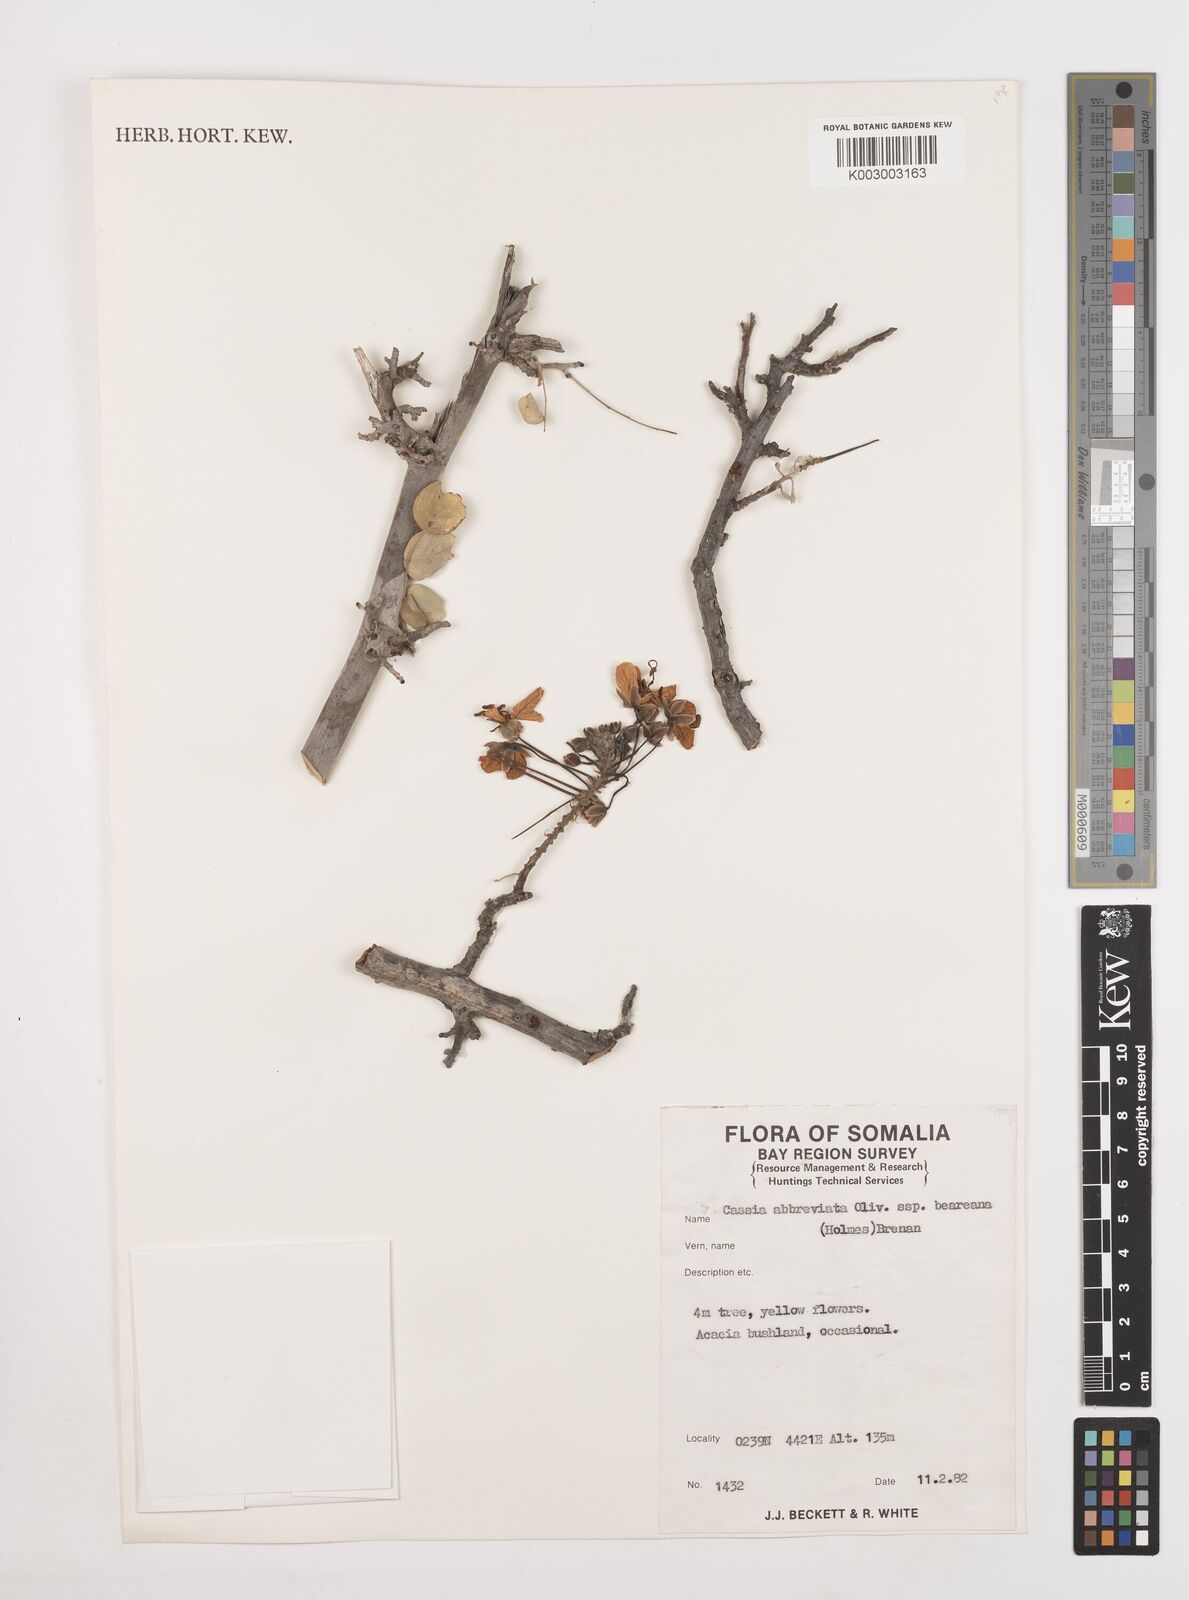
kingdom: Plantae
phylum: Tracheophyta
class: Magnoliopsida
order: Fabales
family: Fabaceae
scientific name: Fabaceae
